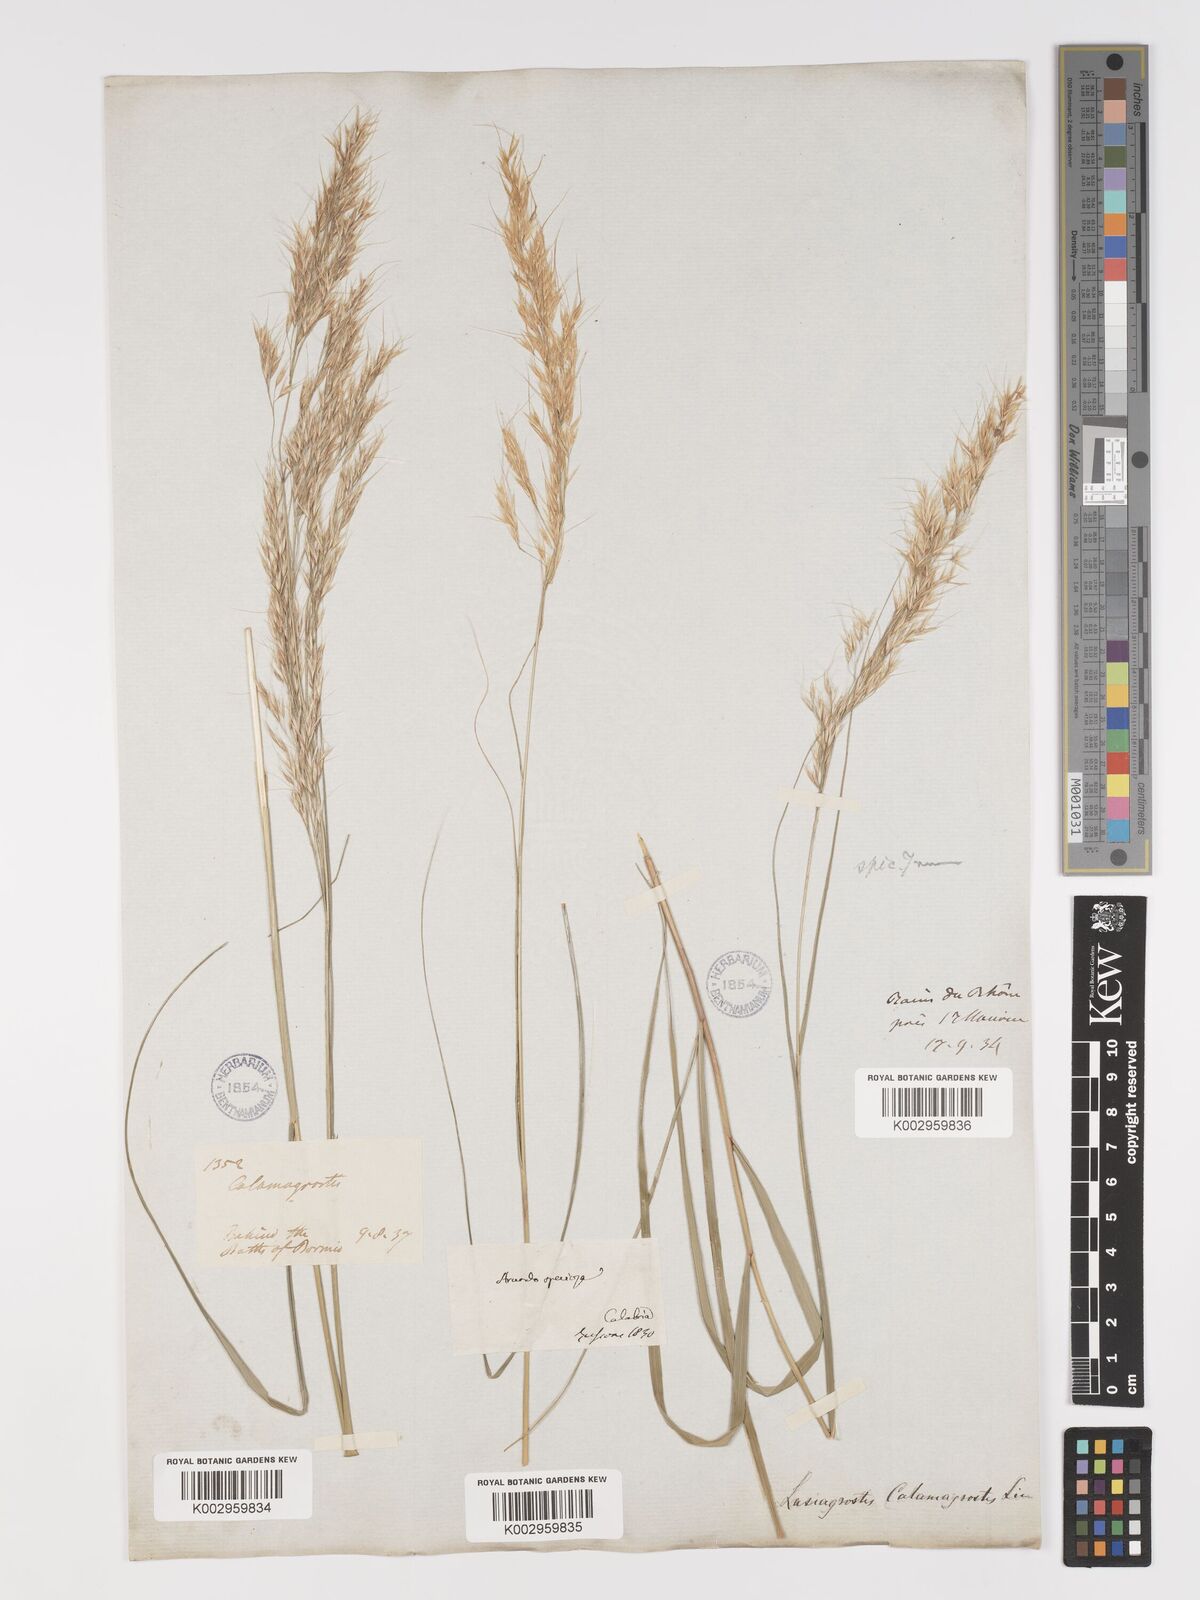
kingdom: Plantae
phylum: Tracheophyta
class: Liliopsida
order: Poales
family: Poaceae
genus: Achnatherum
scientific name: Achnatherum calamagrostis
